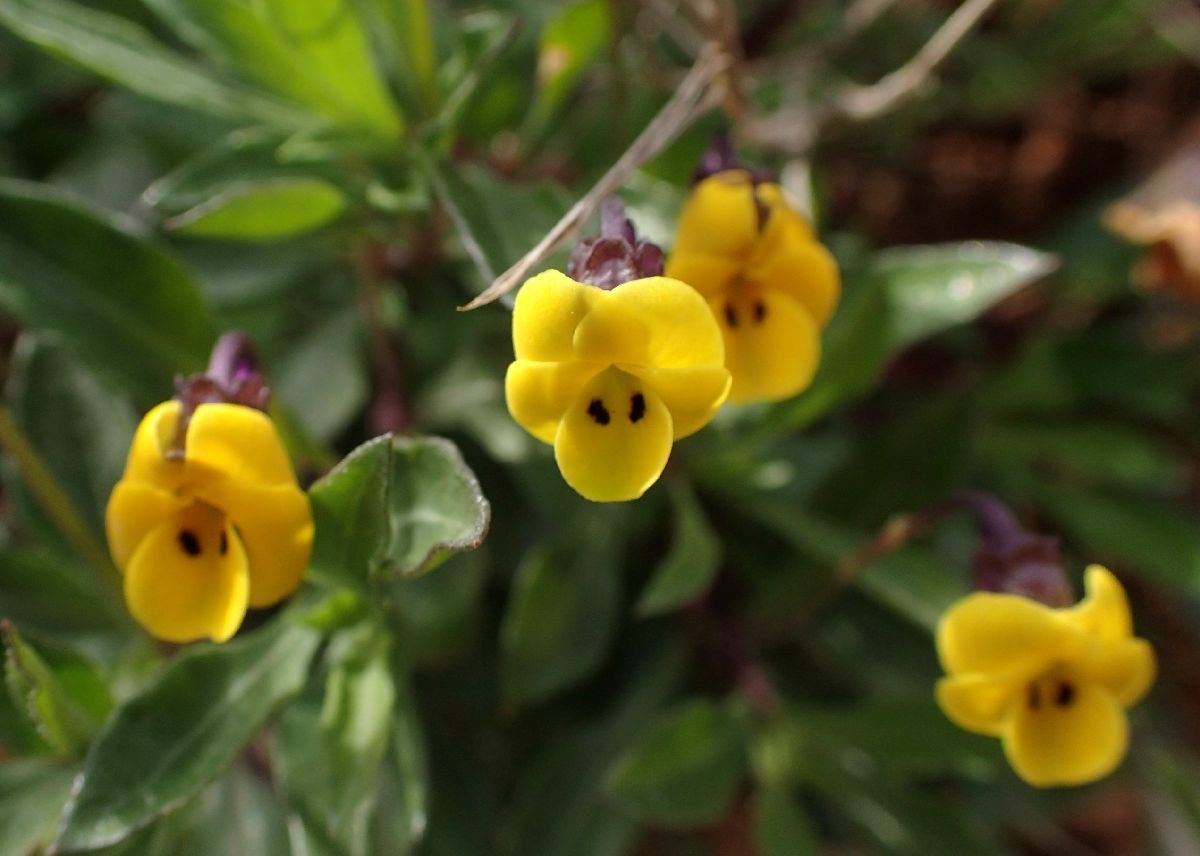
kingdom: Plantae
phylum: Tracheophyta
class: Magnoliopsida
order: Malpighiales
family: Violaceae
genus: Viola
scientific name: Viola scorpiuroides
